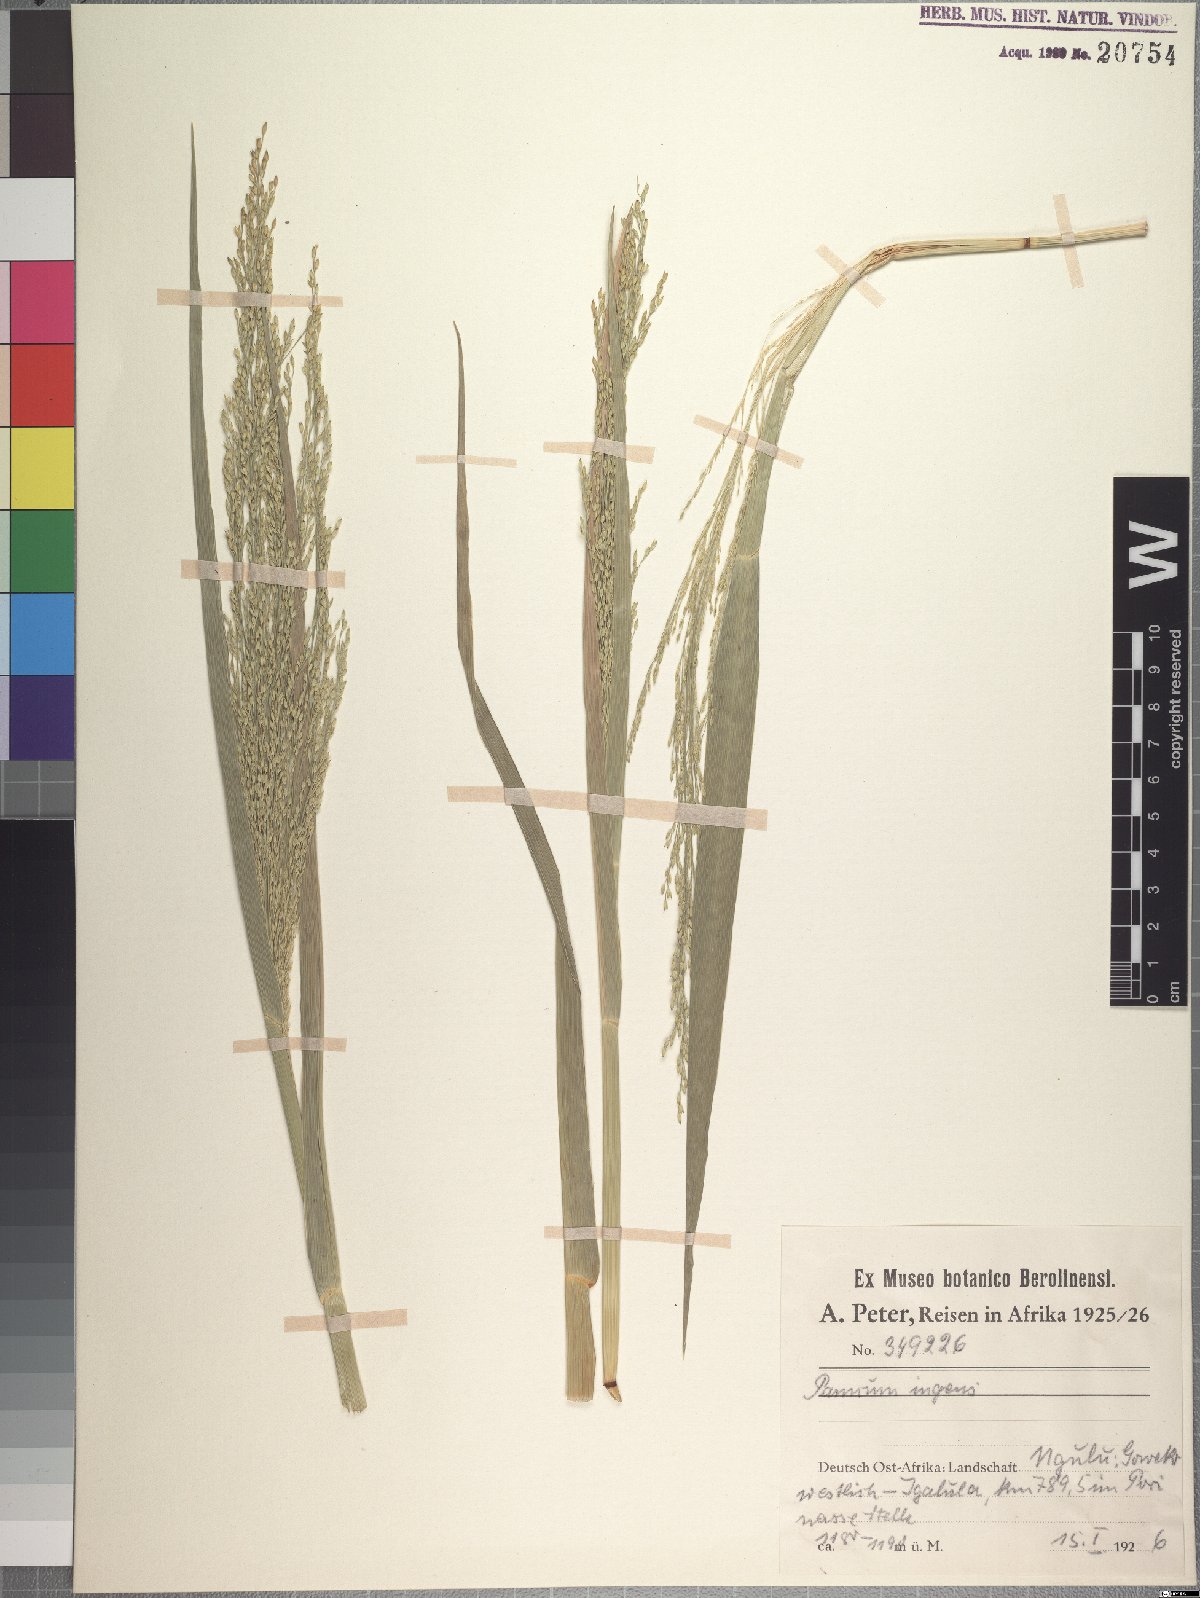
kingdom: Plantae
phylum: Tracheophyta
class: Liliopsida
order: Poales
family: Poaceae
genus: Panicum
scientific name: Panicum subalbidum
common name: Elbow buffalo grass
